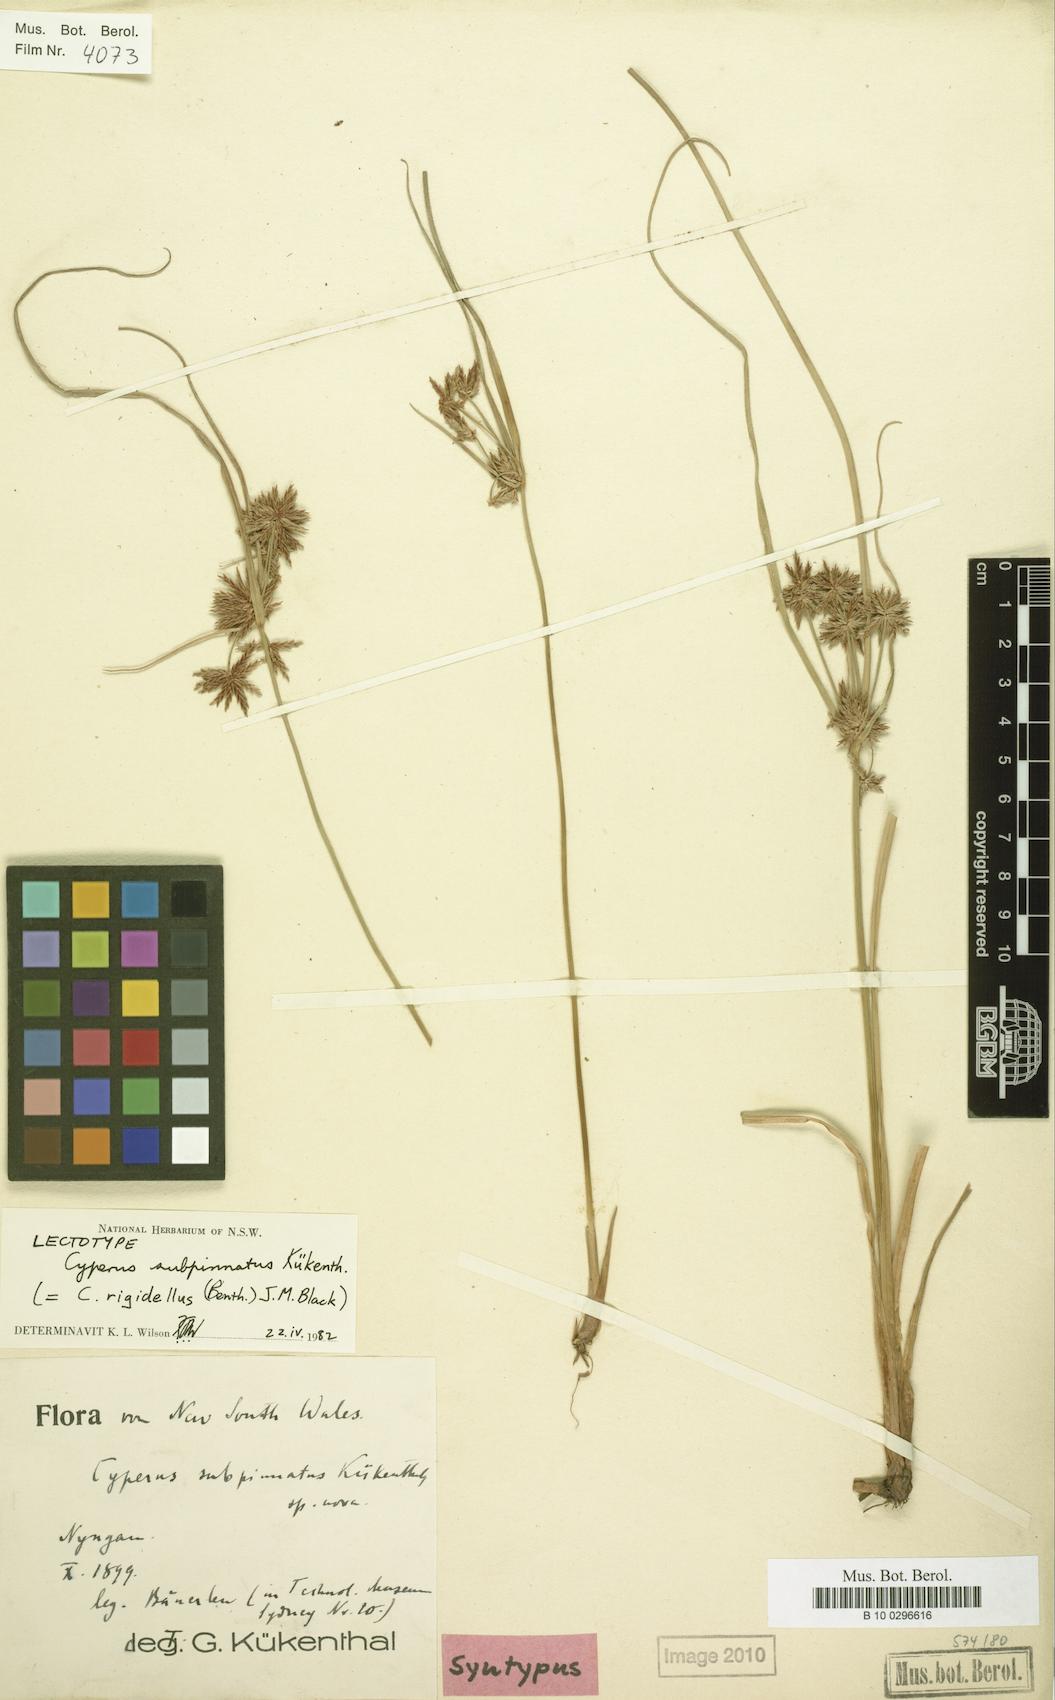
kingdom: Plantae
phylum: Tracheophyta
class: Liliopsida
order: Poales
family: Cyperaceae
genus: Cyperus
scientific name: Cyperus rigidellus
